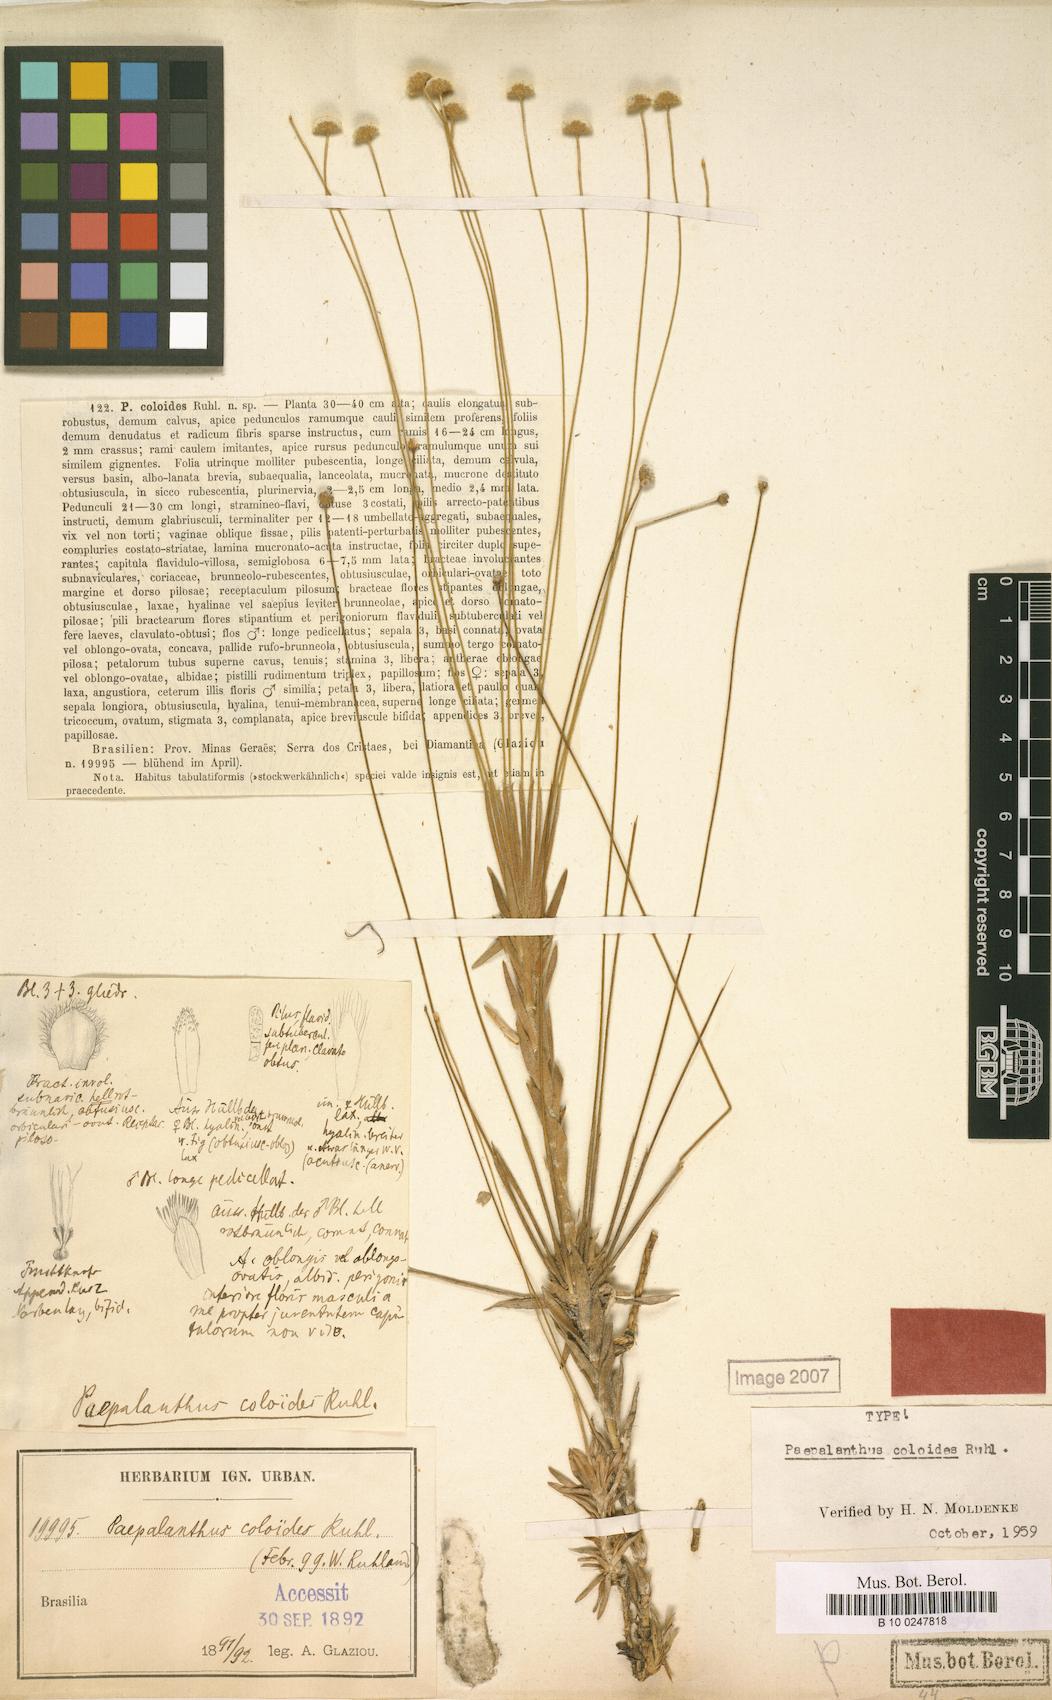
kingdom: Plantae
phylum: Tracheophyta
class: Liliopsida
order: Poales
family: Eriocaulaceae
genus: Paepalanthus
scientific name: Paepalanthus coloides
